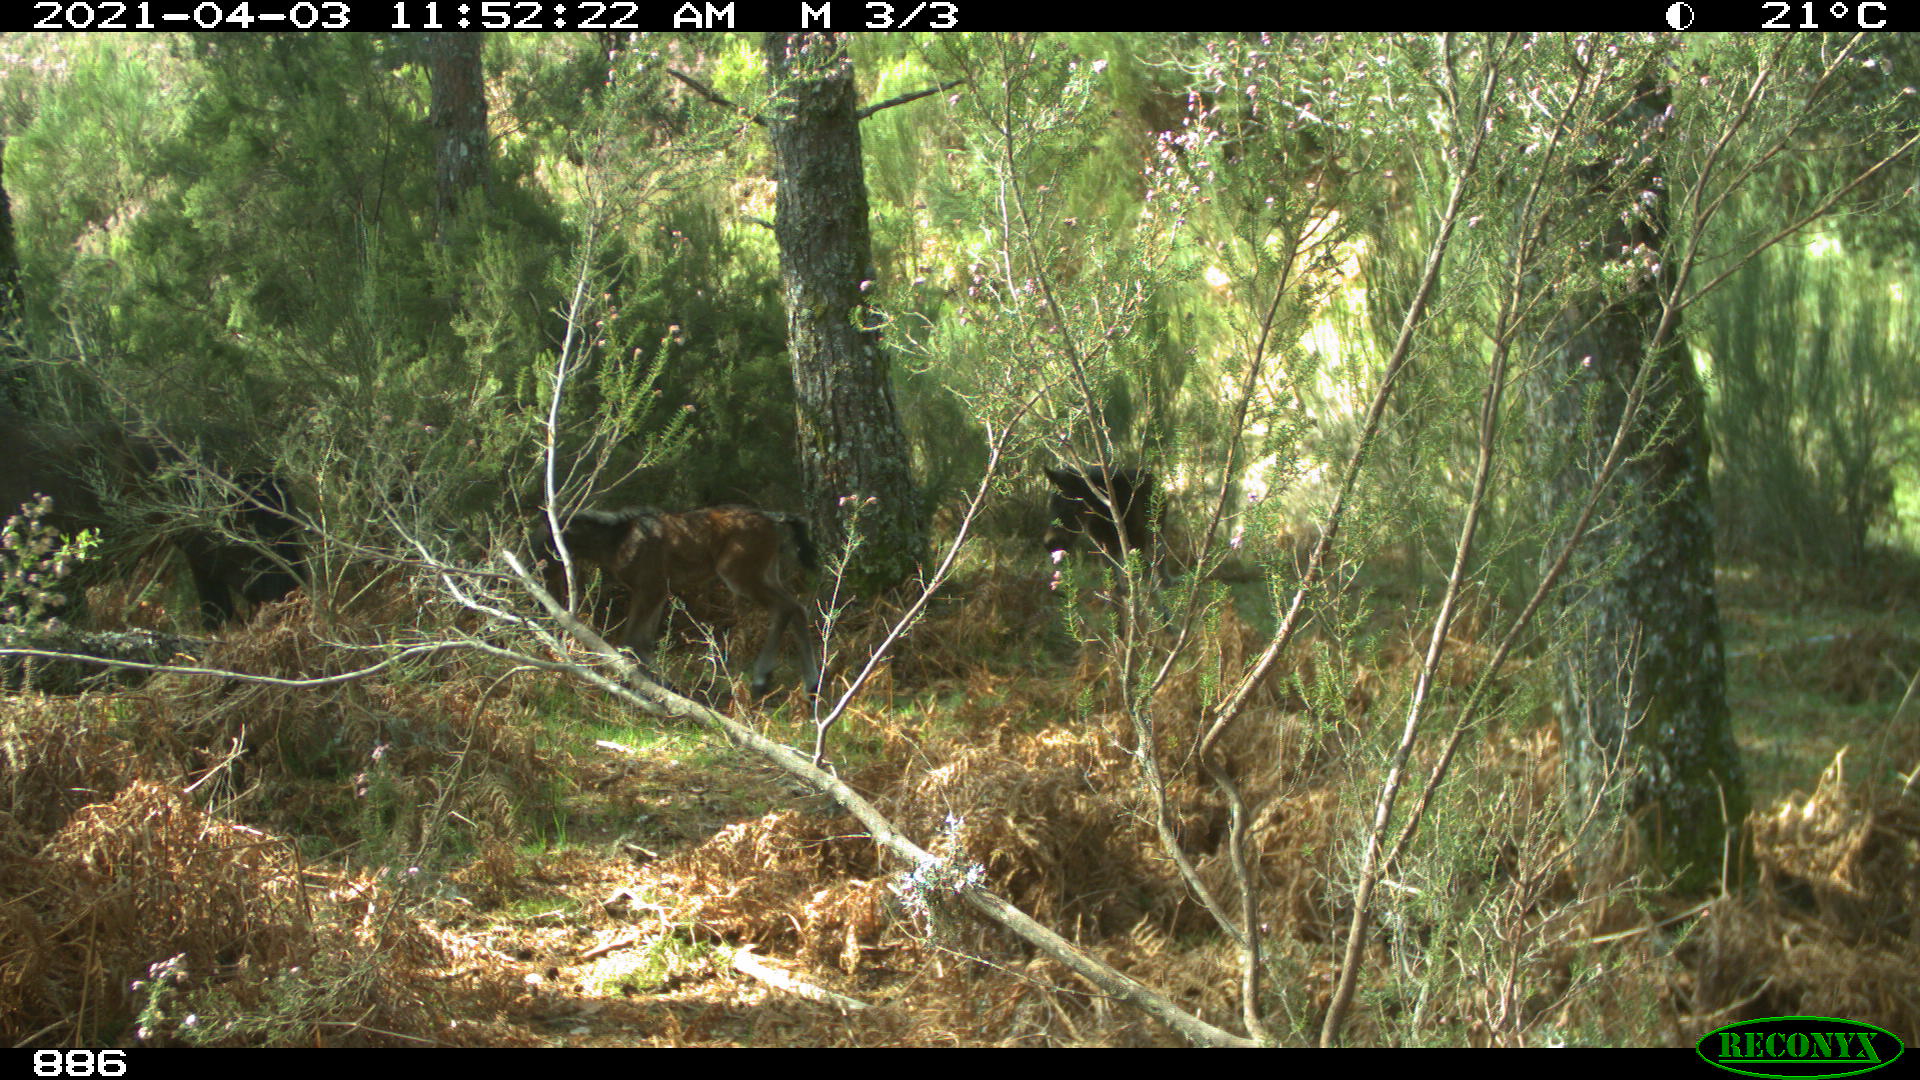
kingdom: Animalia
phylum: Chordata
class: Mammalia
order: Perissodactyla
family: Equidae
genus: Equus
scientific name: Equus caballus
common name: Horse
